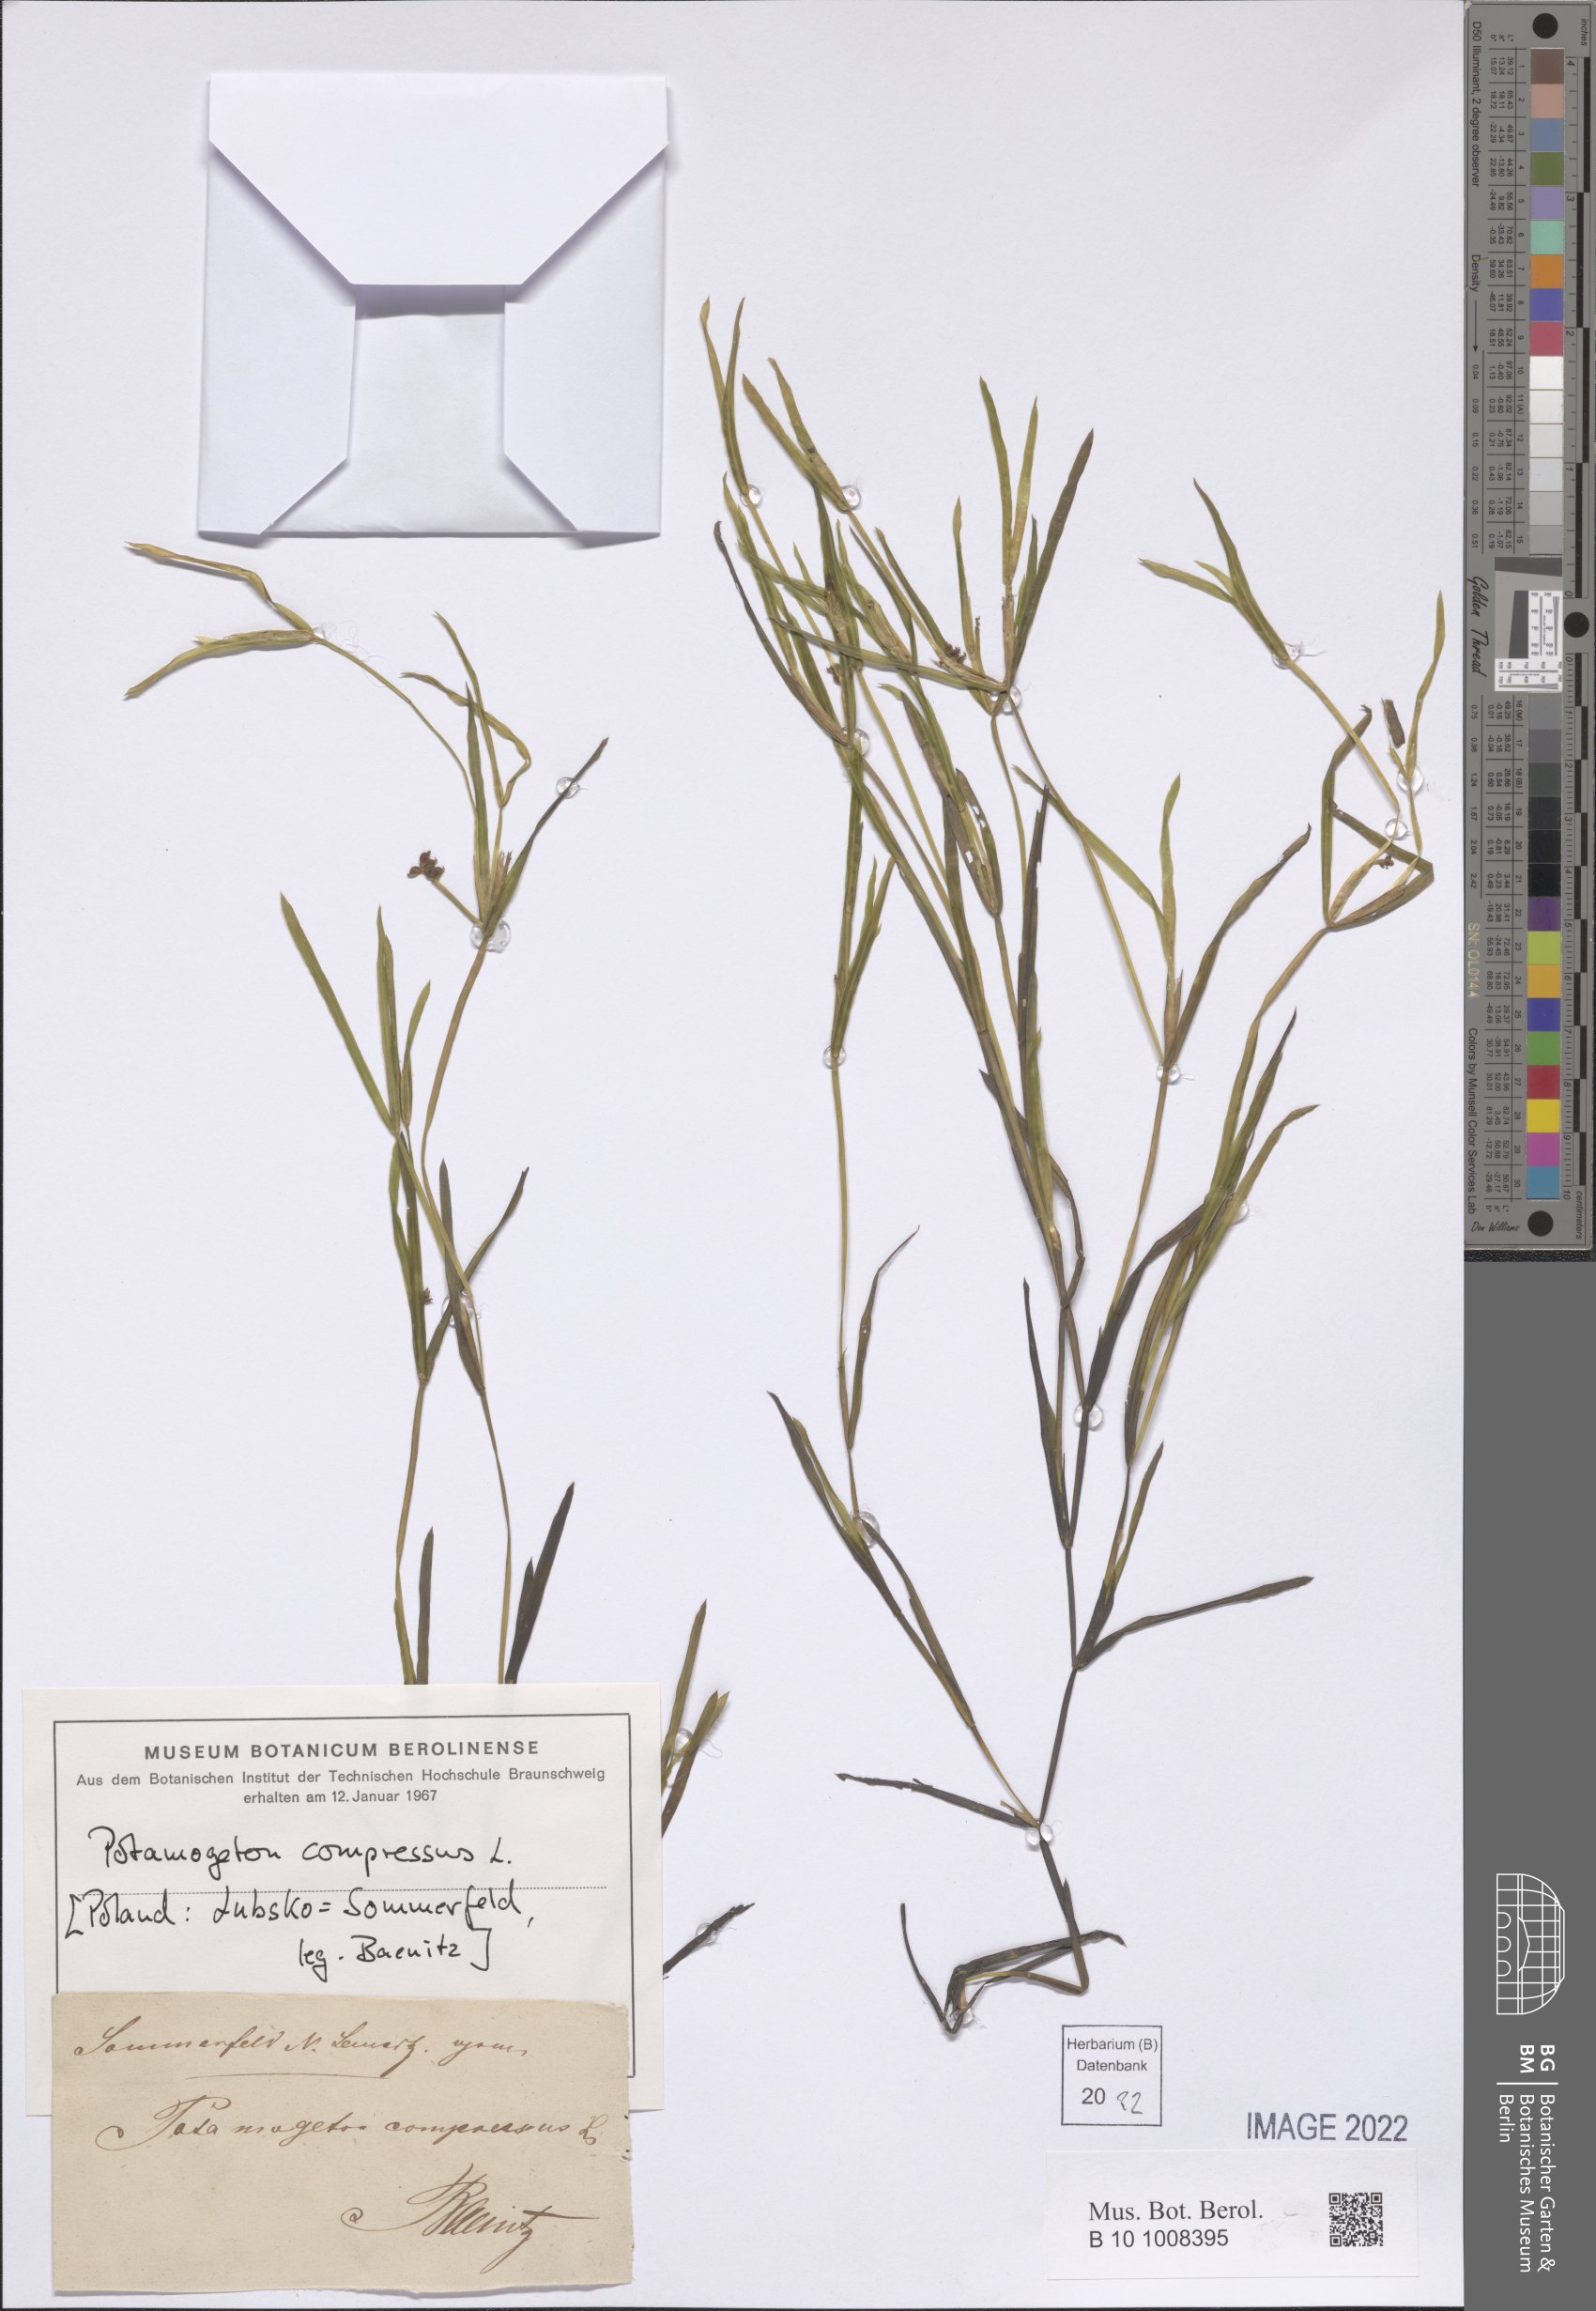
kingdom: Plantae
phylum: Tracheophyta
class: Liliopsida
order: Alismatales
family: Potamogetonaceae
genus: Potamogeton
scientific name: Potamogeton compressus
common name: Grass-wrack pondweed
